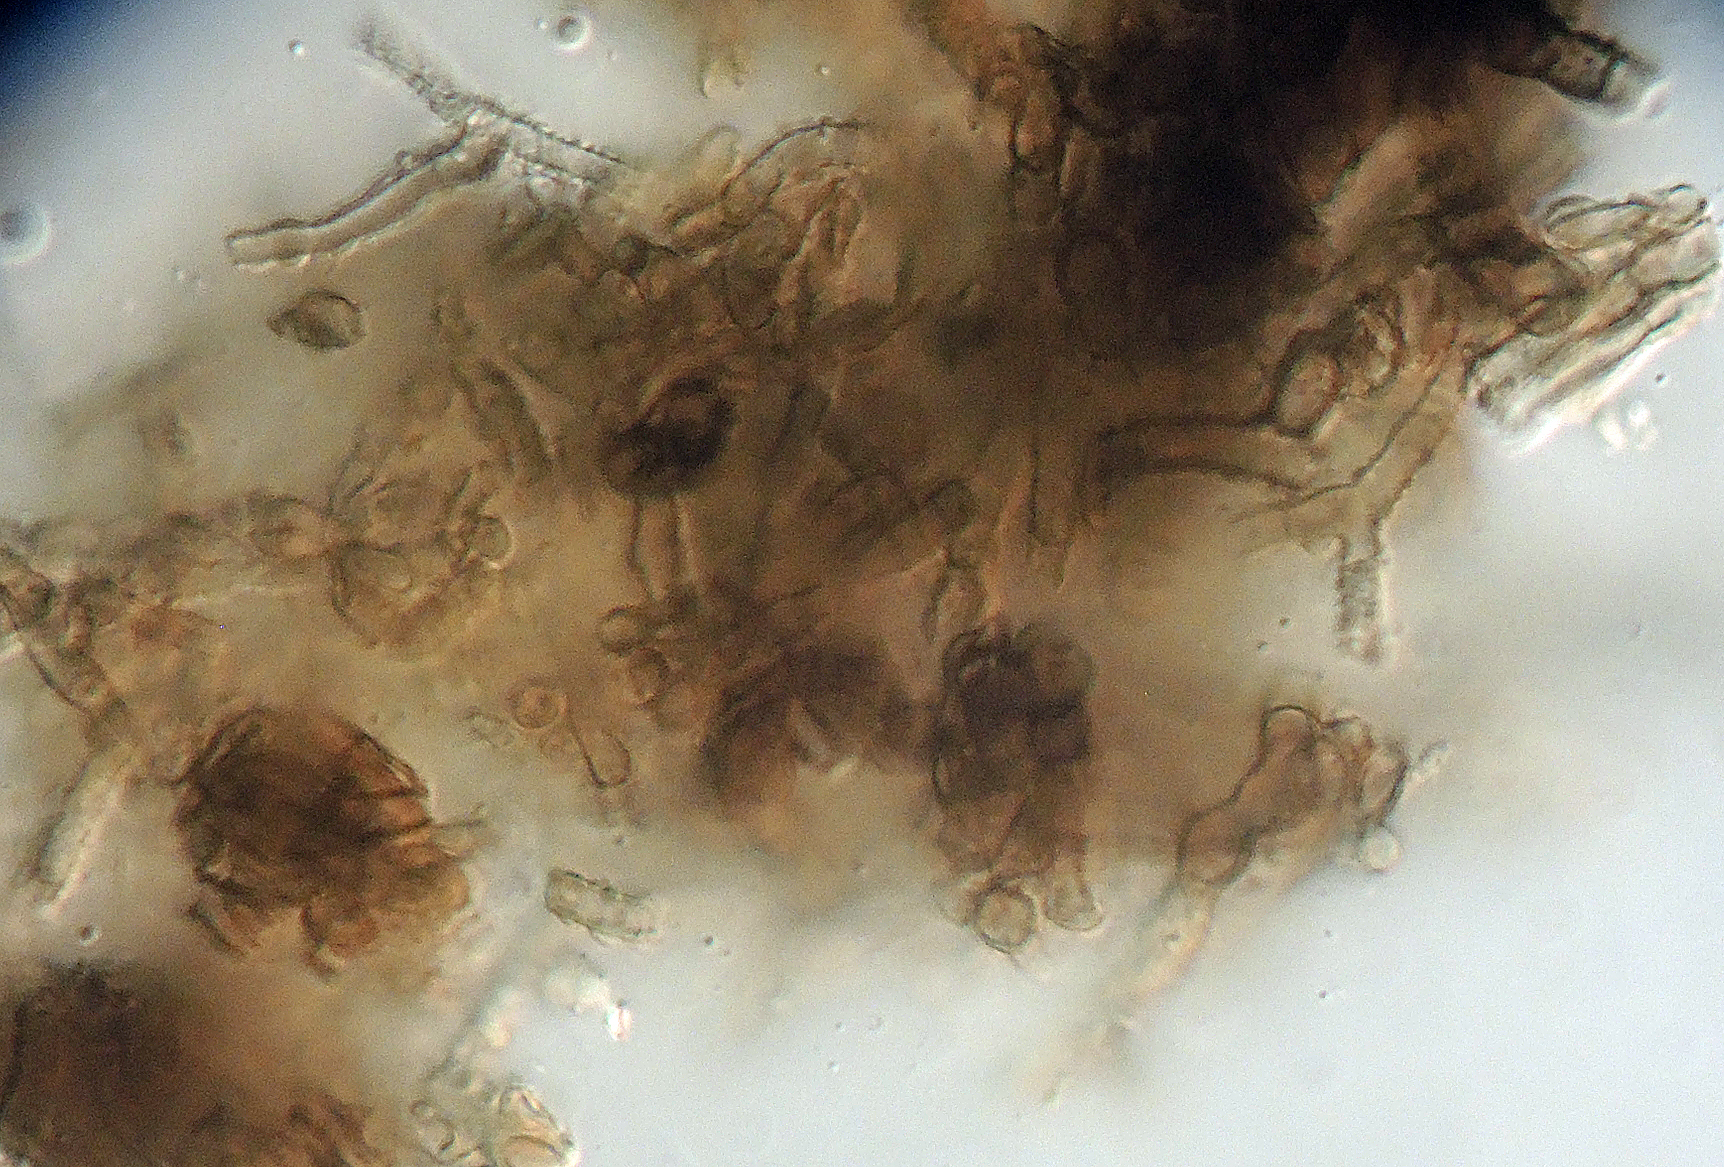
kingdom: Fungi
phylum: Ascomycota
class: Dothideomycetes
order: Mycosphaerellales
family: Mycosphaerellaceae
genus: Mycosphaerella
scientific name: Mycosphaerella asperulata
